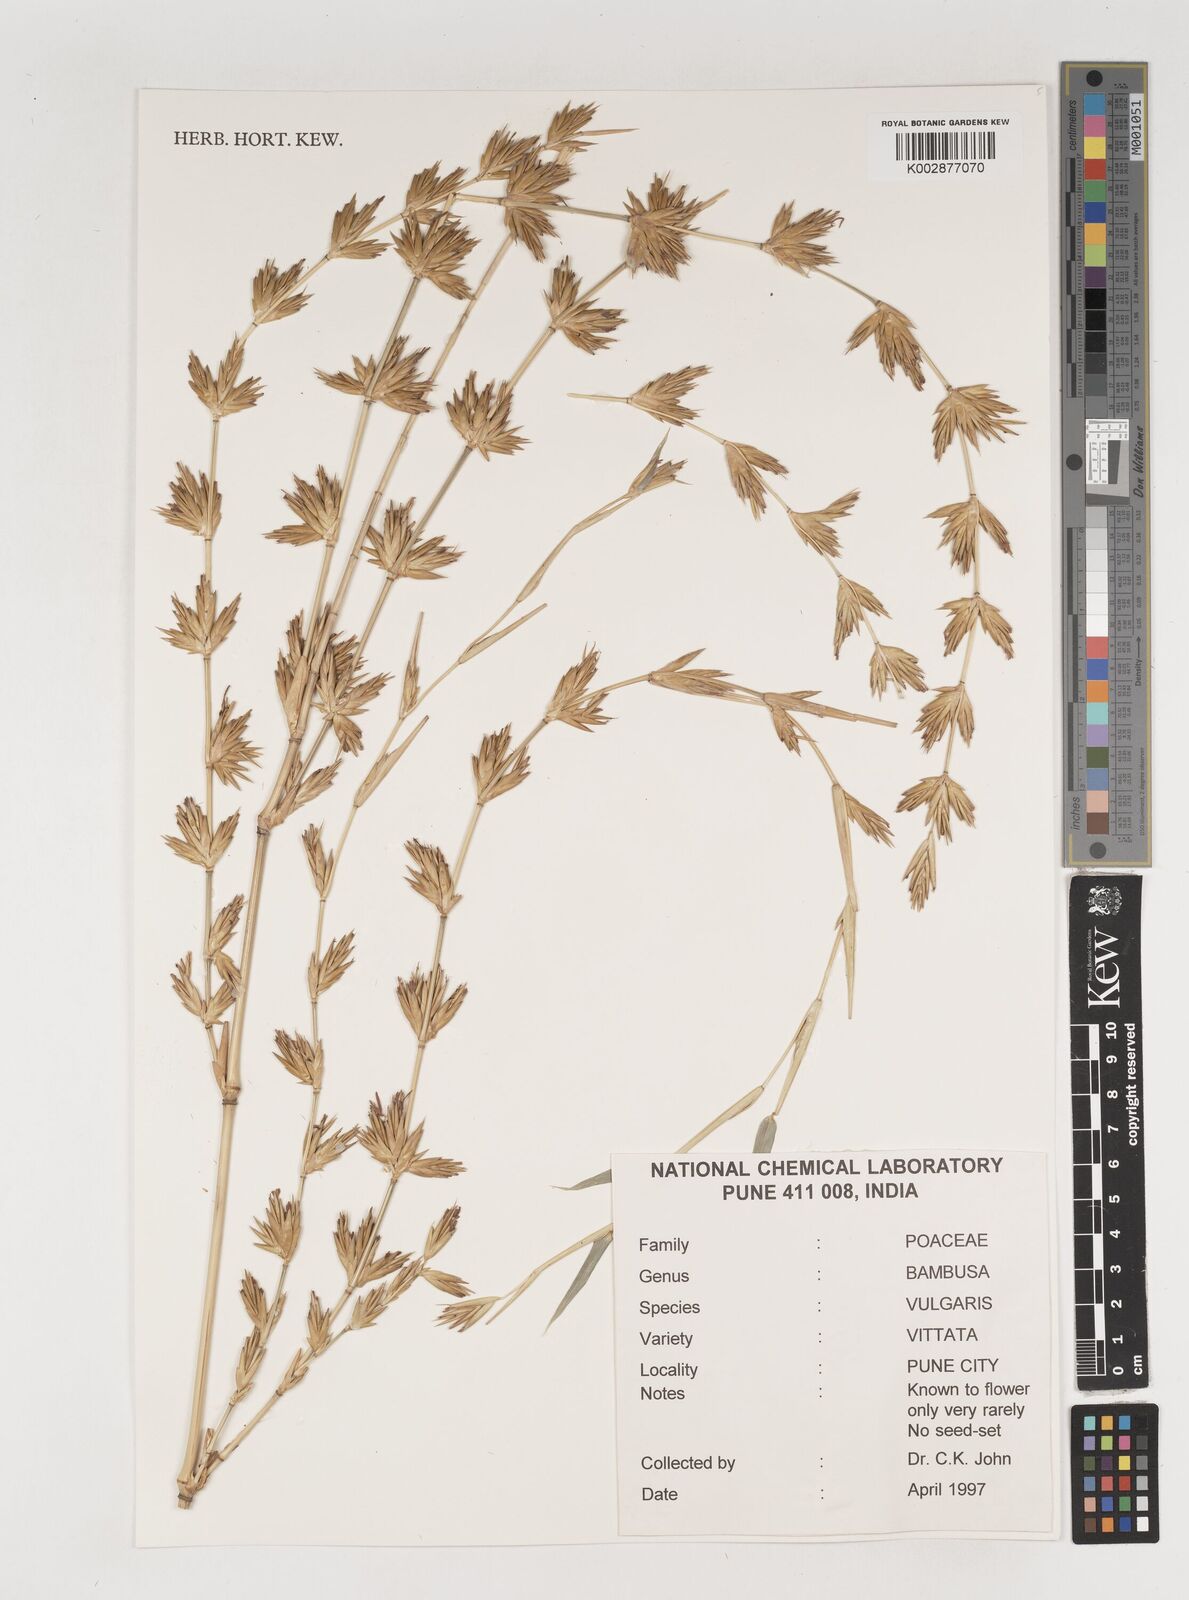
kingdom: Plantae
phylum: Tracheophyta
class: Liliopsida
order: Poales
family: Poaceae
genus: Bambusa
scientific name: Bambusa
